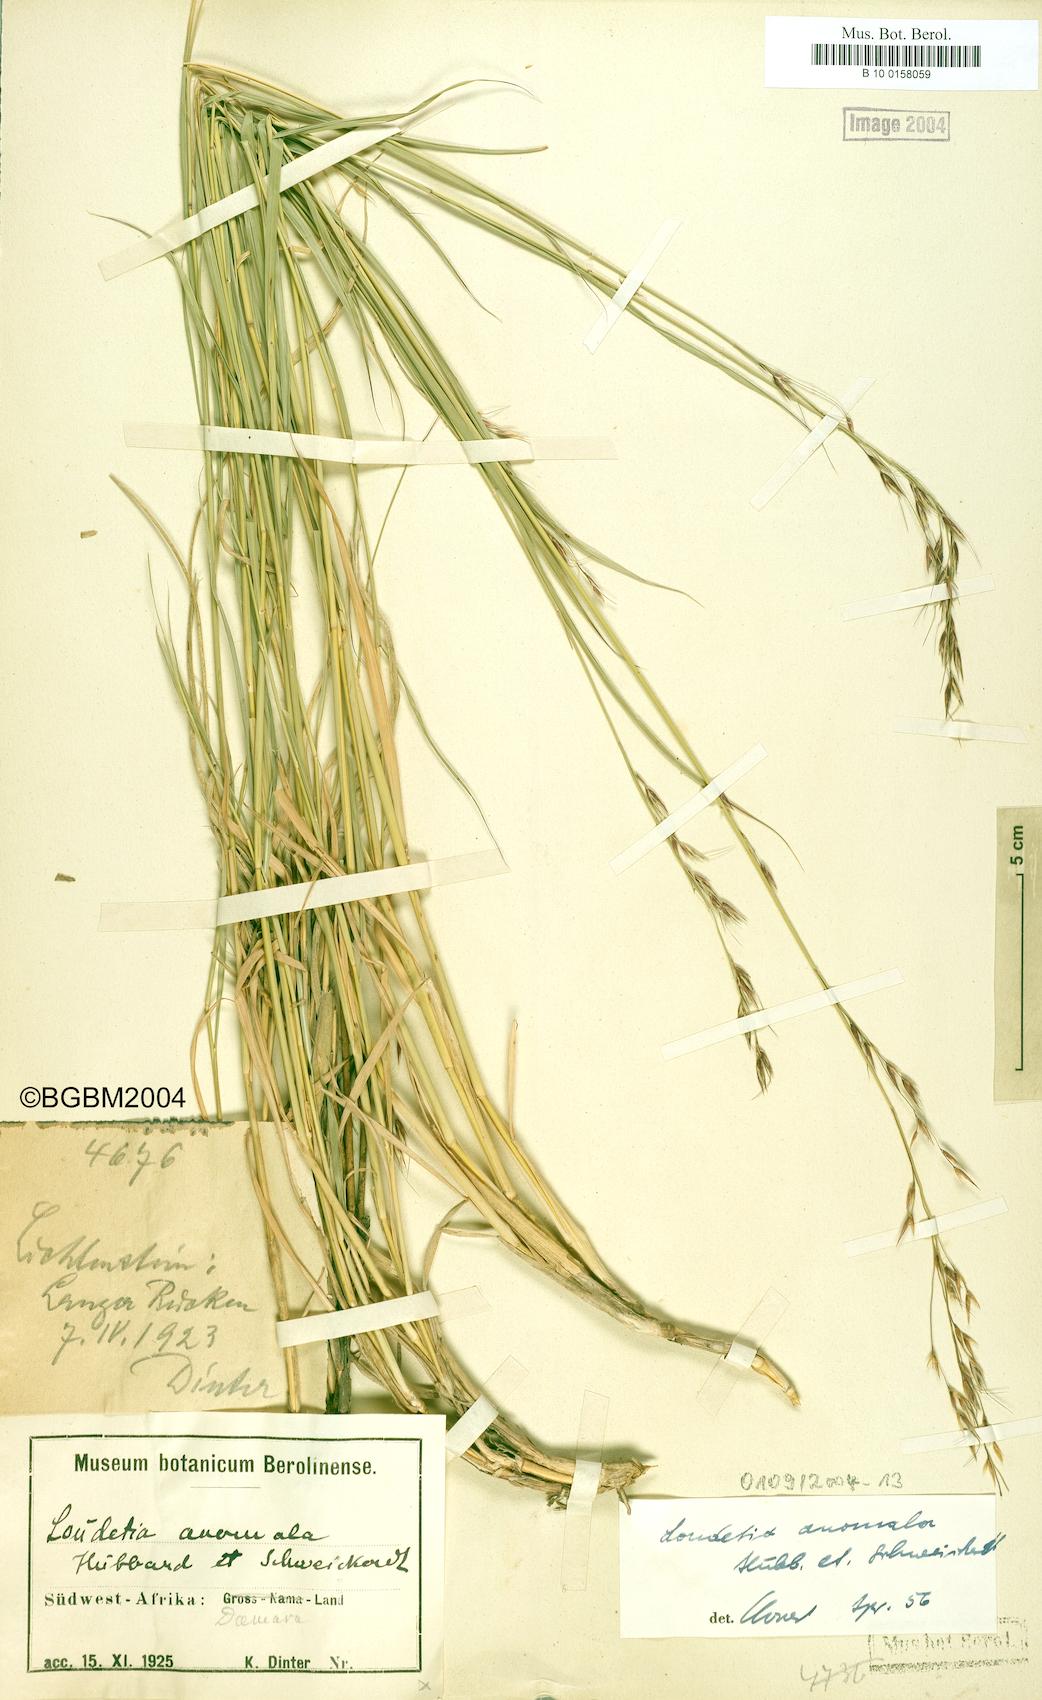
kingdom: Plantae
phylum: Tracheophyta
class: Liliopsida
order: Poales
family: Poaceae
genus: Danthoniopsis
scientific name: Danthoniopsis ramosa
